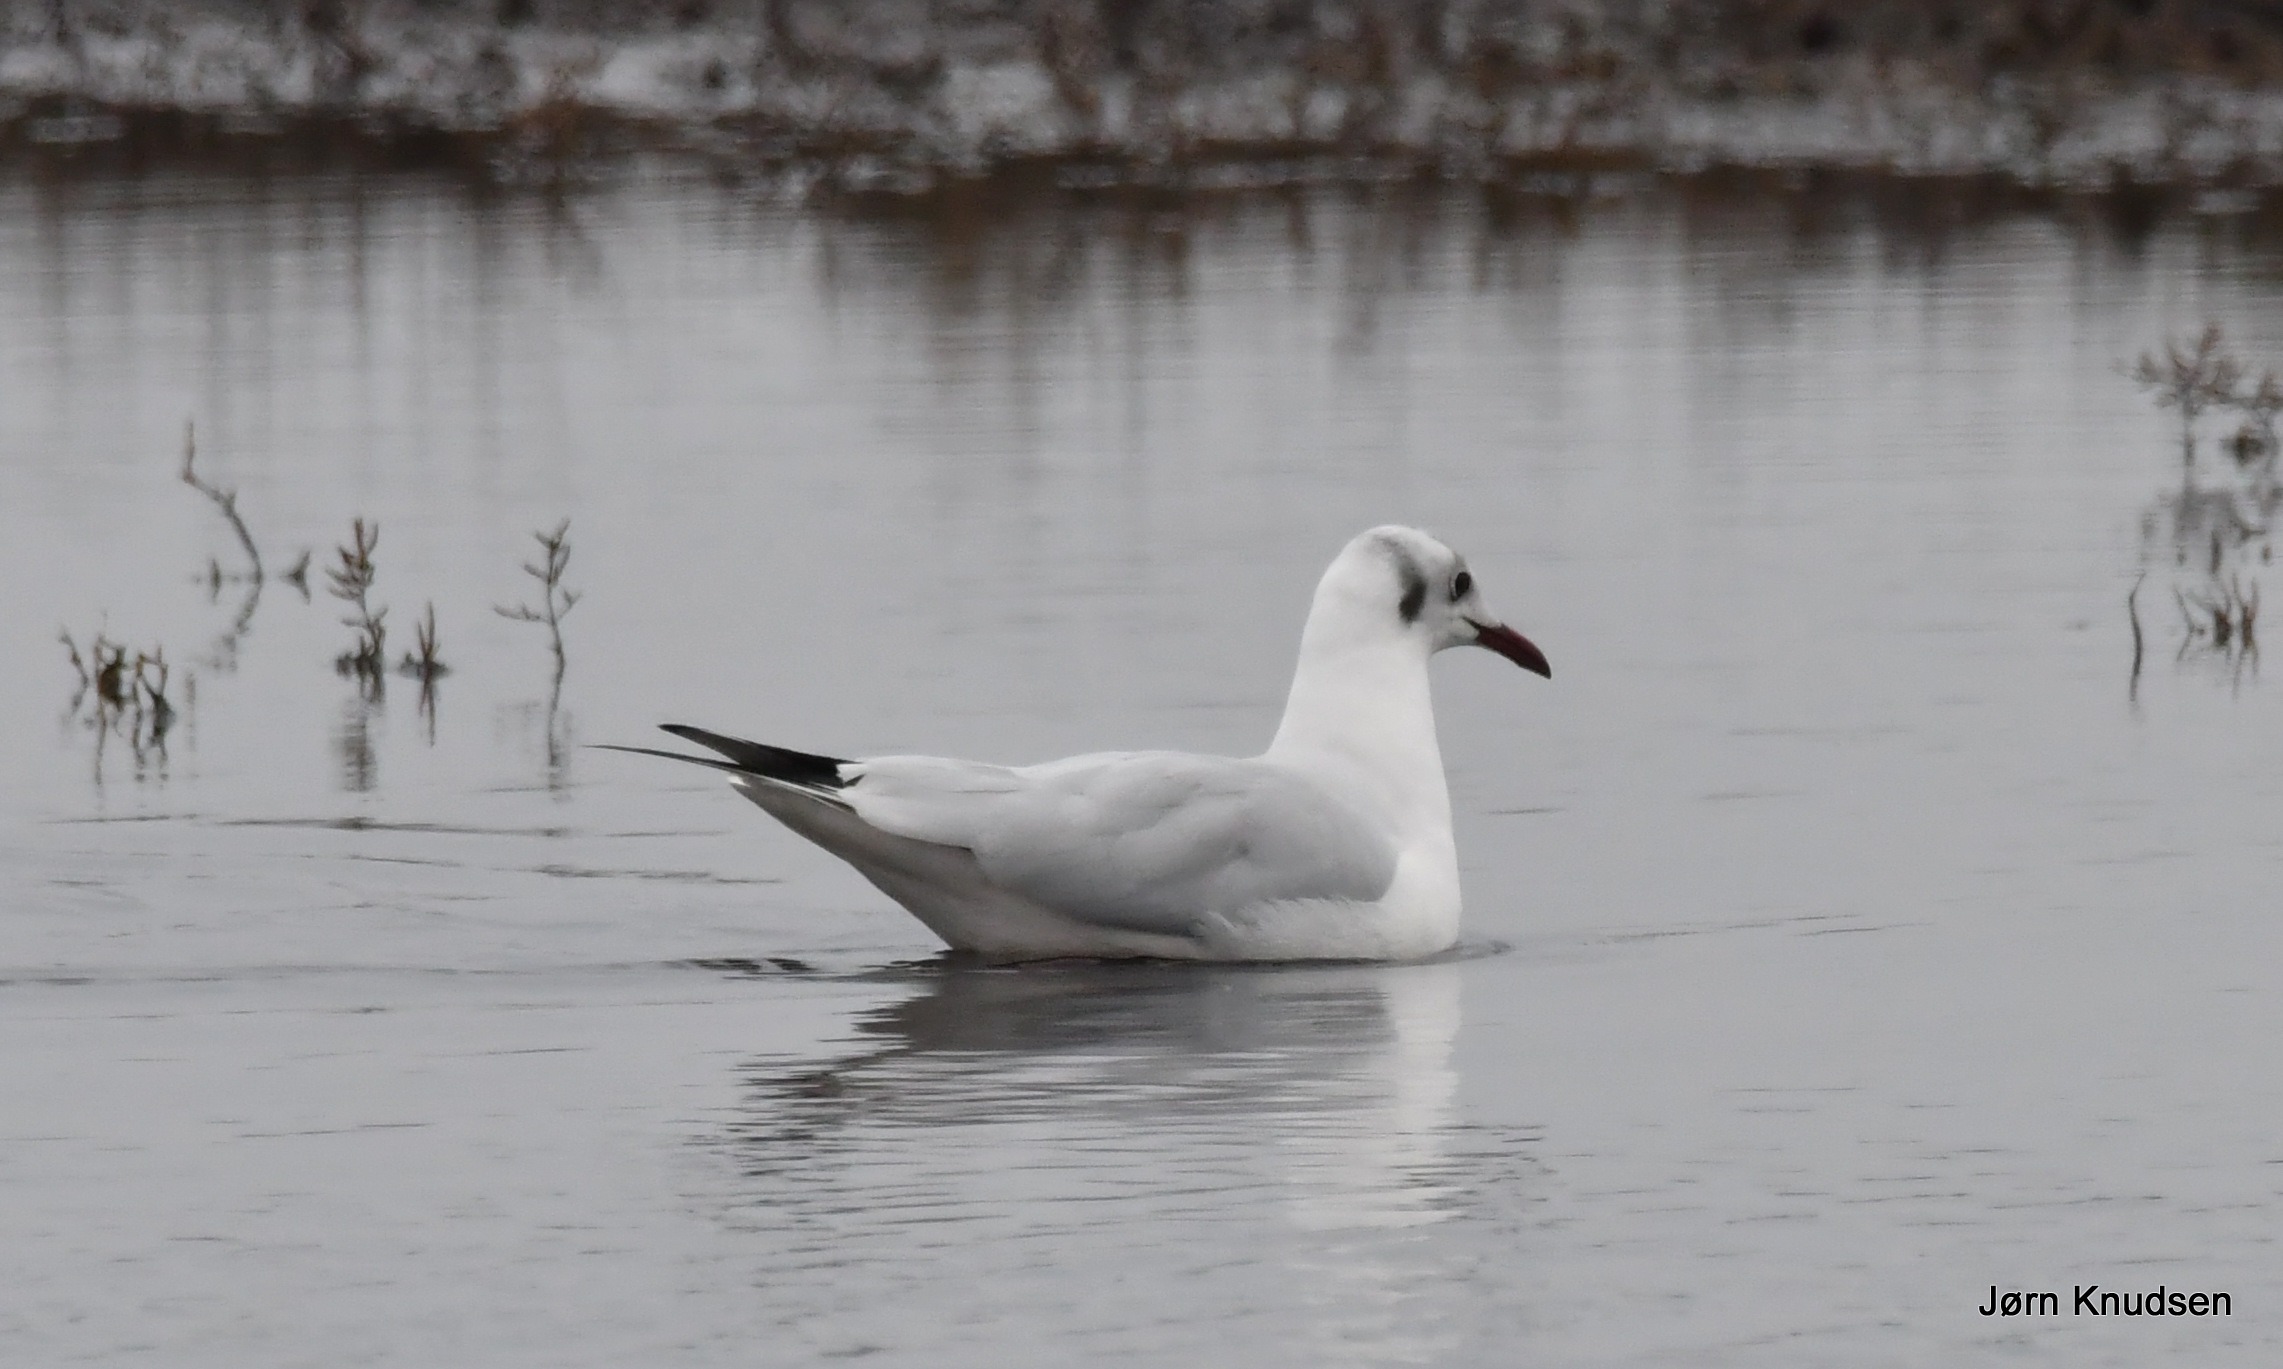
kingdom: Animalia
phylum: Chordata
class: Aves
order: Charadriiformes
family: Laridae
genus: Chroicocephalus
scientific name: Chroicocephalus ridibundus
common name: Hættemåge
